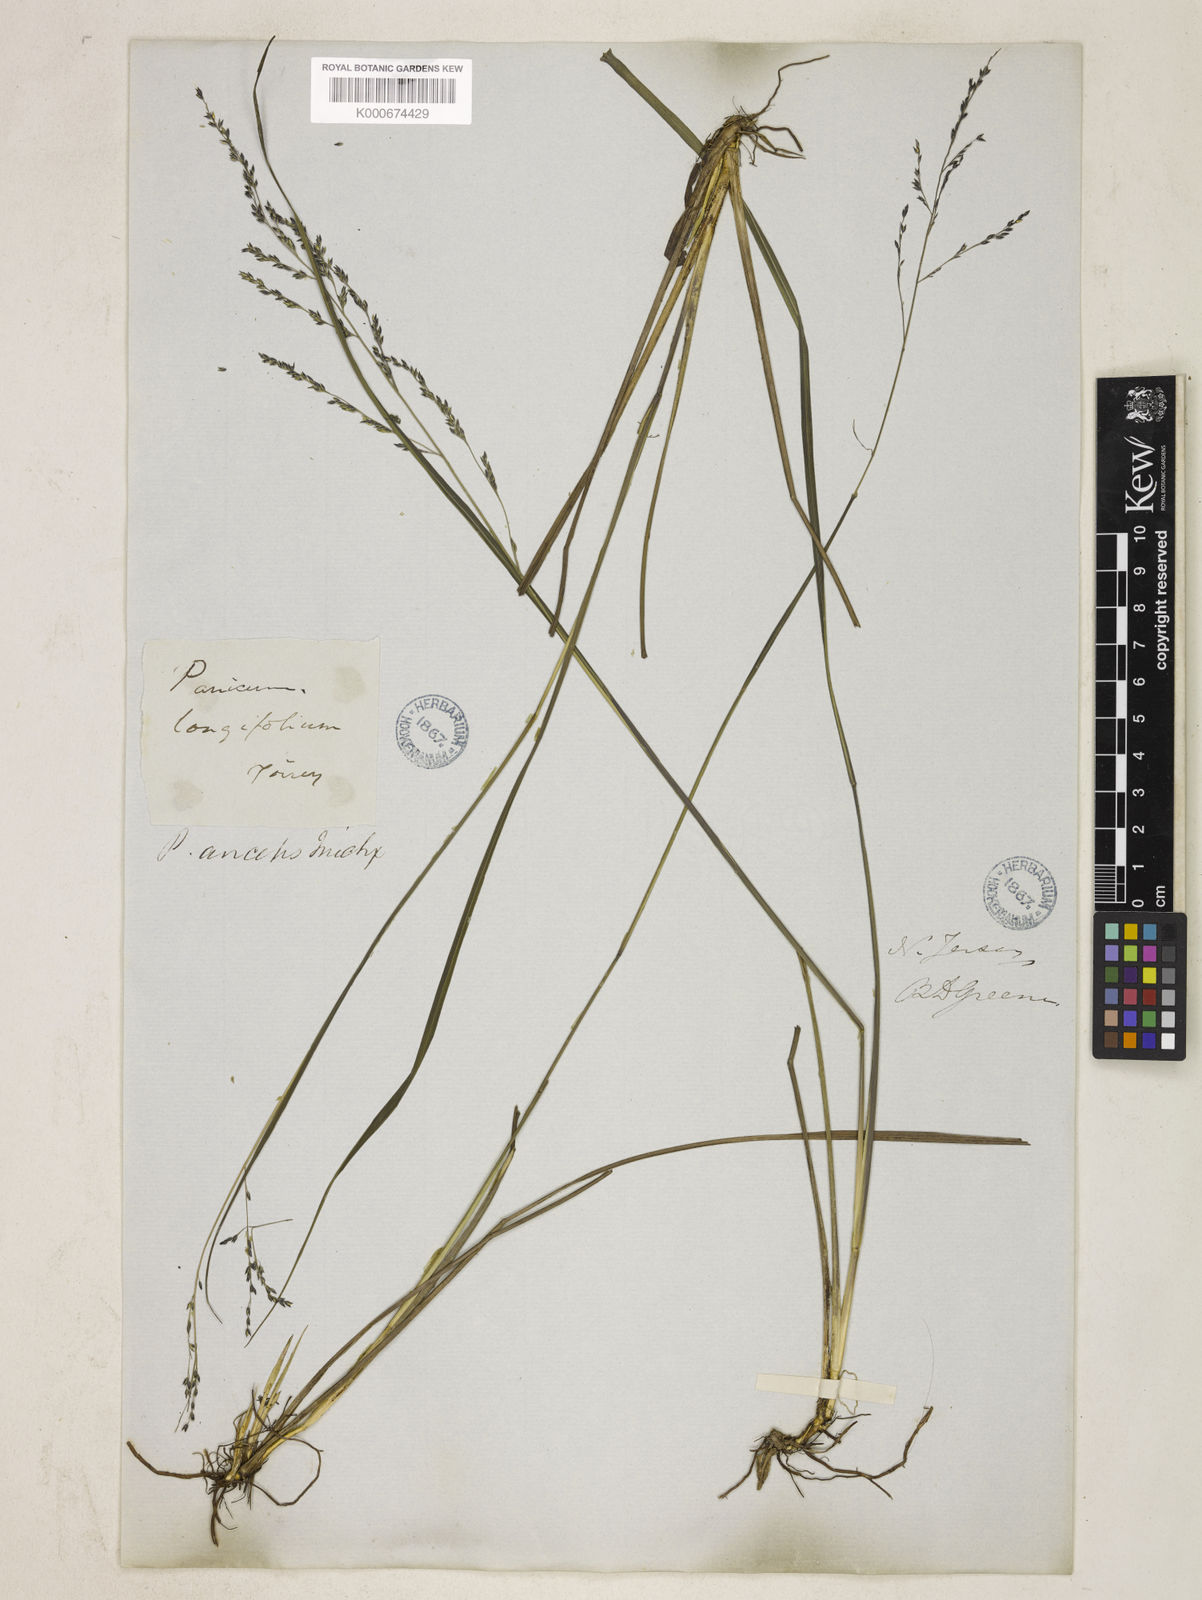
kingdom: Plantae
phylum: Tracheophyta
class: Liliopsida
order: Poales
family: Poaceae
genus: Coleataenia
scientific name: Coleataenia longifolia
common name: Long-leaved panicgrass
